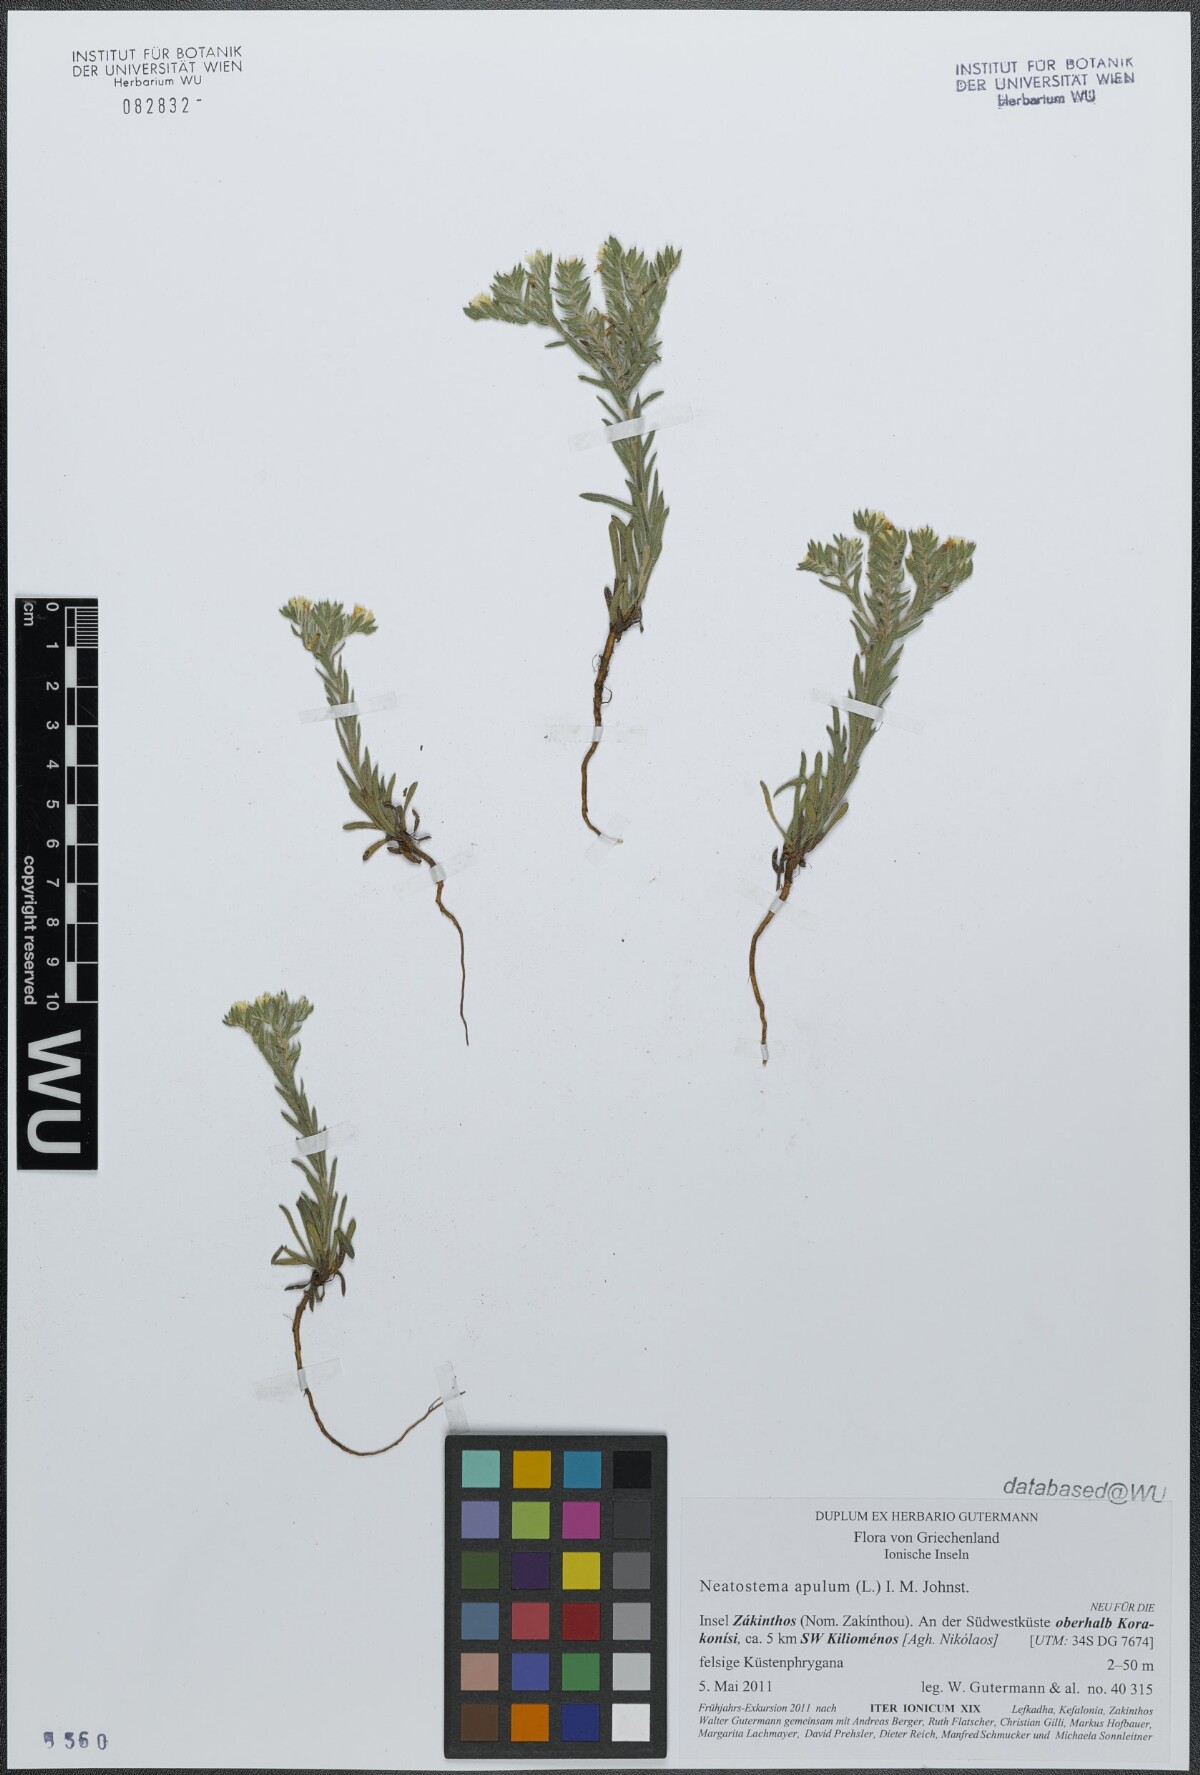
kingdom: Plantae
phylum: Tracheophyta
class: Magnoliopsida
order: Boraginales
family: Boraginaceae
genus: Neatostema
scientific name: Neatostema apulum
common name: Hairy sheepweed
